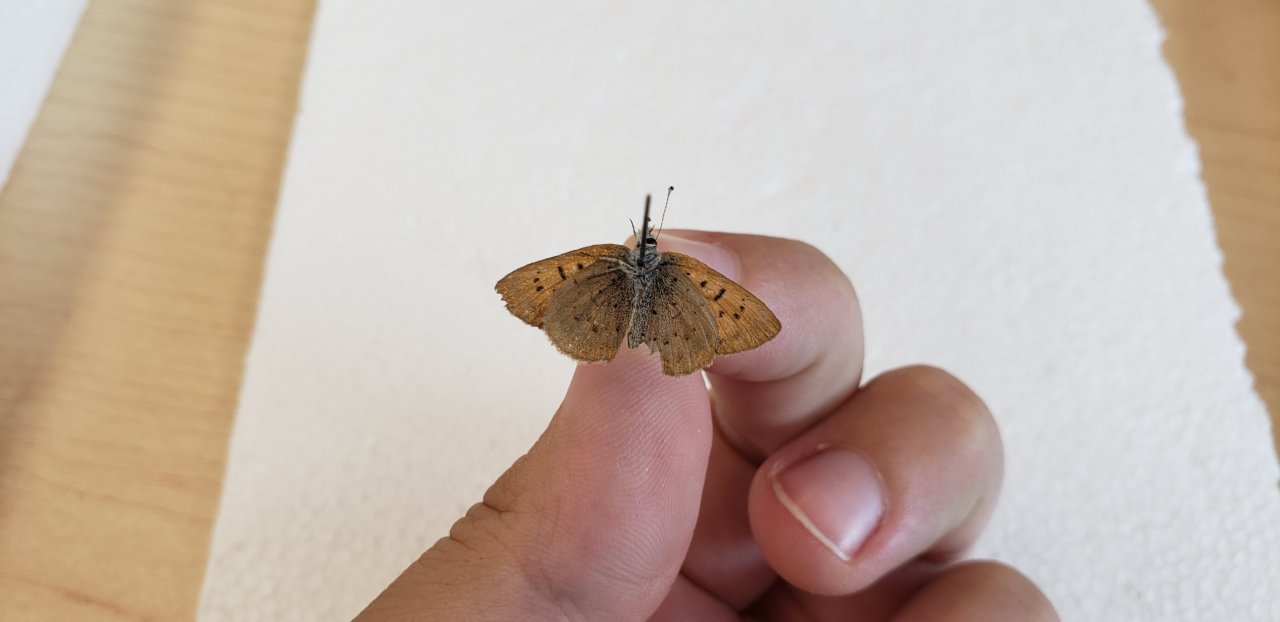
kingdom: Animalia
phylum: Arthropoda
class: Insecta
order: Lepidoptera
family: Lycaenidae
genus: Epidemia
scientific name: Epidemia dorcas
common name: Dorcas Copper
